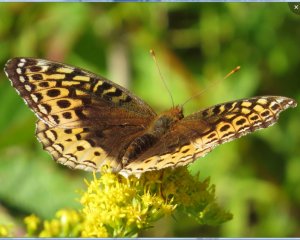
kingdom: Animalia
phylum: Arthropoda
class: Insecta
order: Lepidoptera
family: Nymphalidae
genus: Speyeria
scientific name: Speyeria cybele
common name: Great Spangled Fritillary
